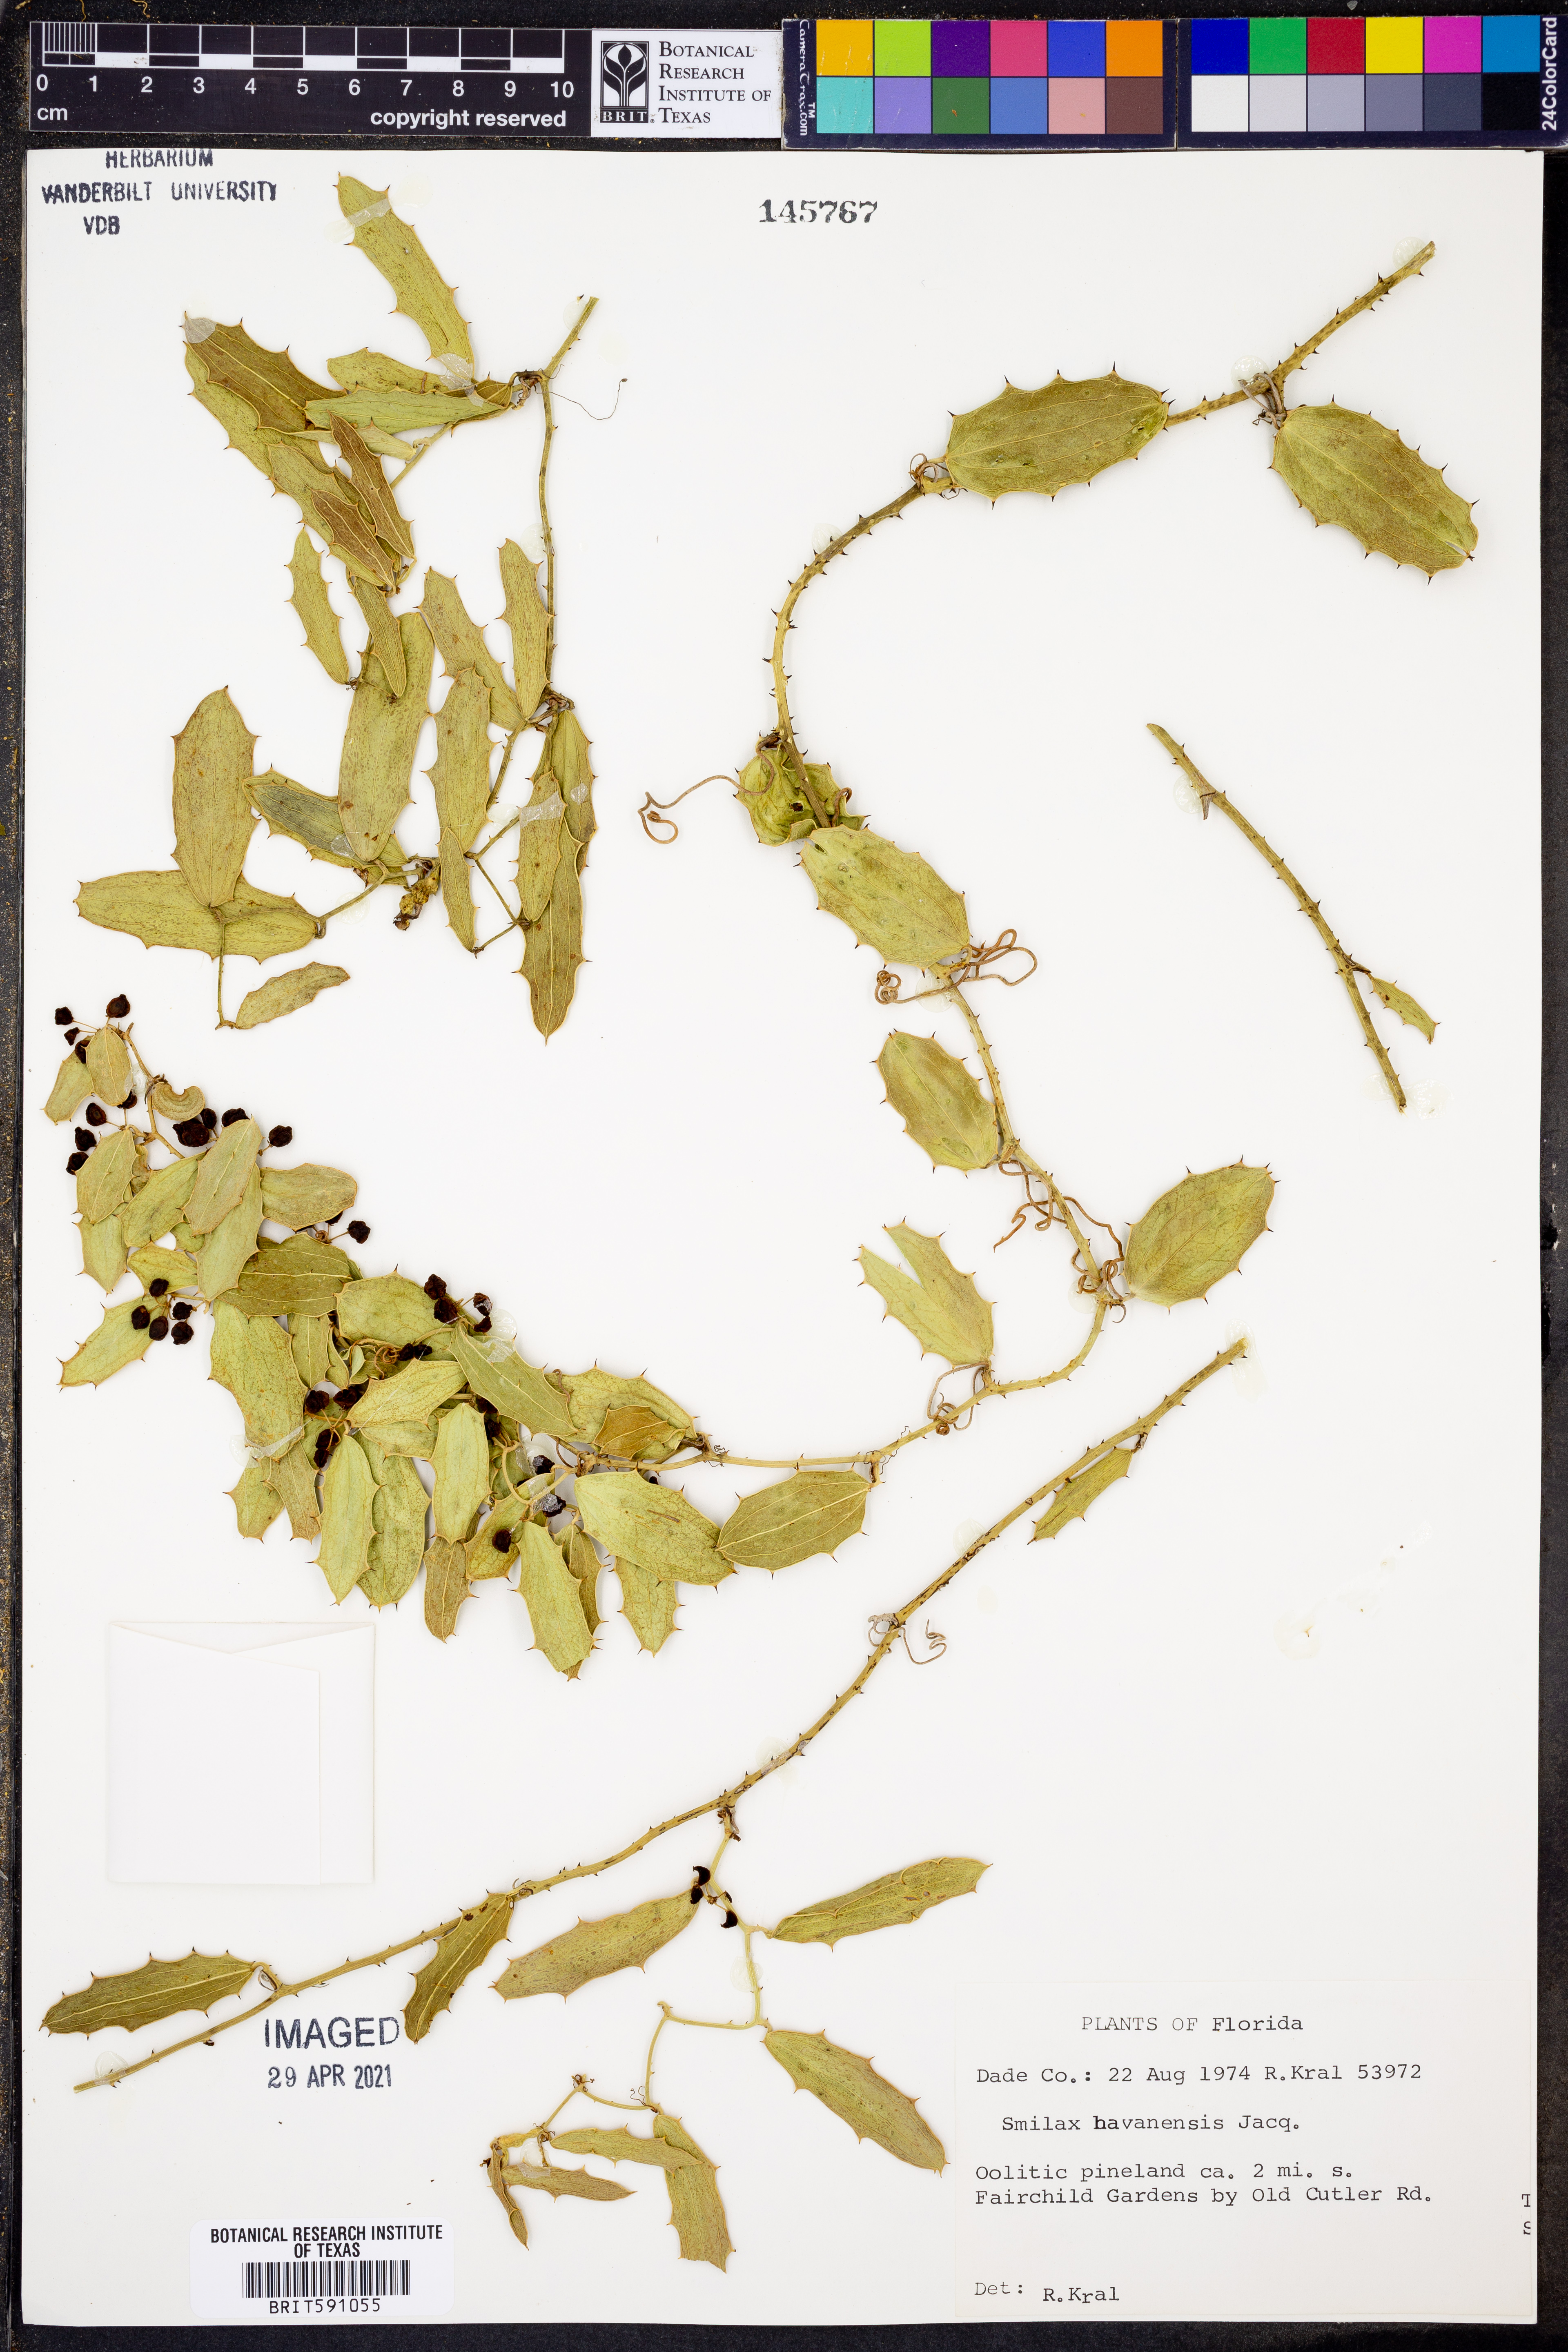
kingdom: Plantae
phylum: Tracheophyta
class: Liliopsida
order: Liliales
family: Smilacaceae
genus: Smilax
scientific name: Smilax havanensis
